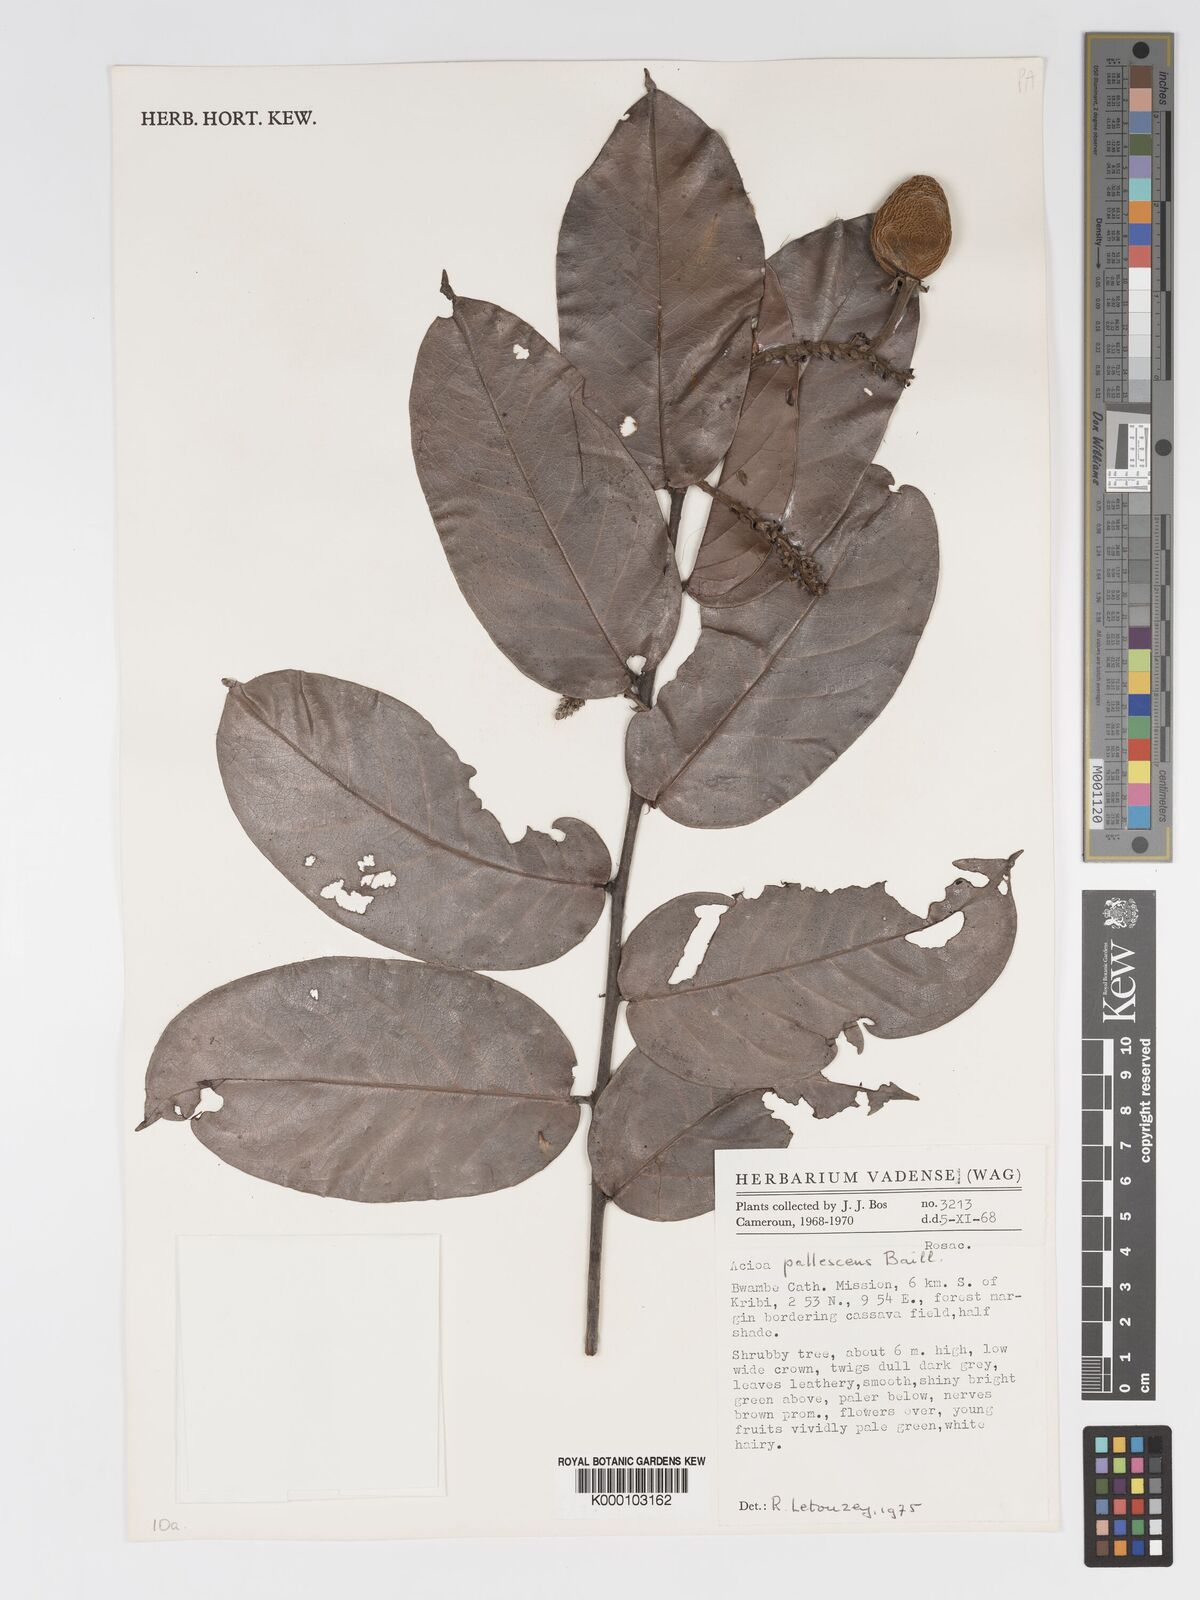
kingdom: Plantae
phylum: Tracheophyta
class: Magnoliopsida
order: Malpighiales
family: Chrysobalanaceae
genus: Dactyladenia
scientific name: Dactyladenia pallescens
